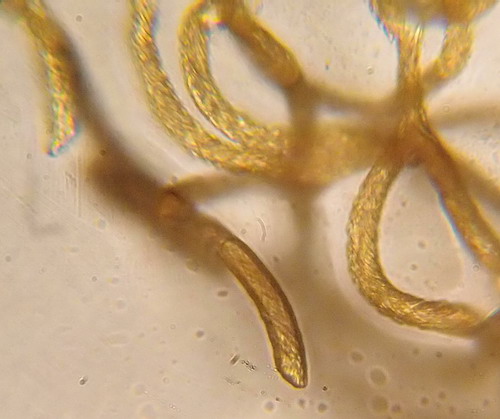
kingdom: Protozoa
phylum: Mycetozoa
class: Myxomycetes
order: Trichiales
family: Arcyriaceae
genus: Hemitrichia
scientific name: Hemitrichia clavata
